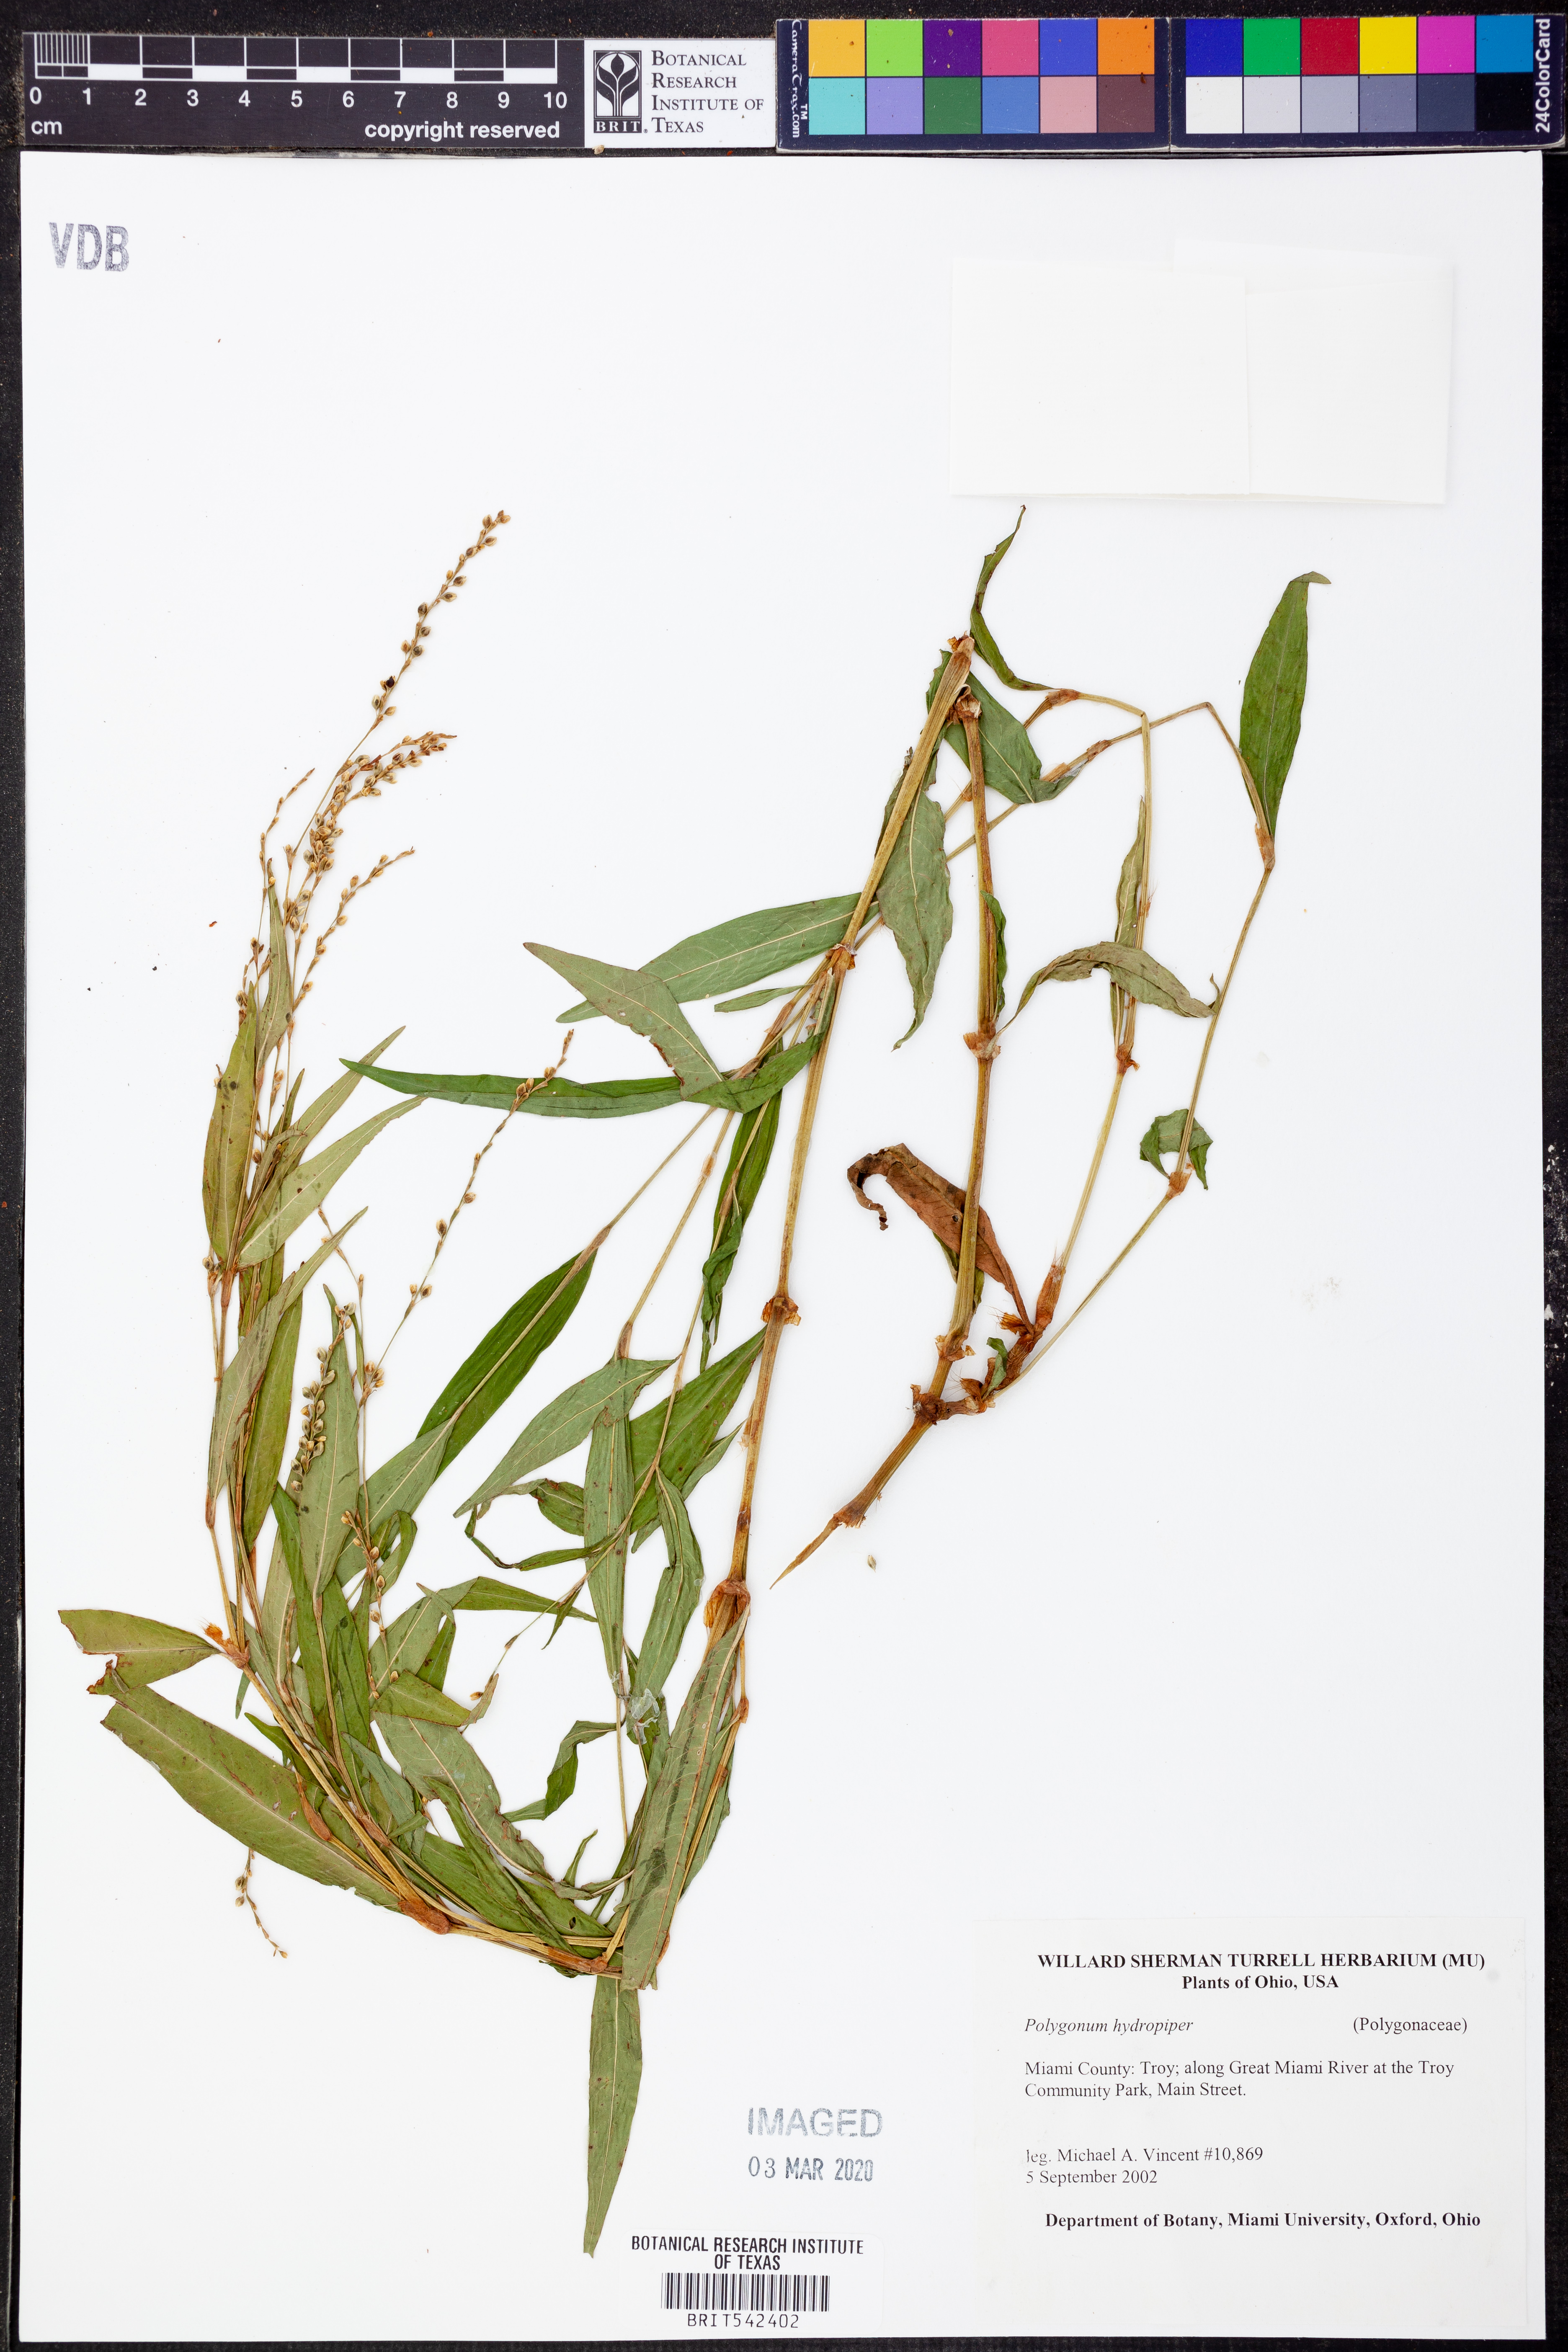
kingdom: Plantae
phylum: Tracheophyta
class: Magnoliopsida
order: Caryophyllales
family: Polygonaceae
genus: Persicaria
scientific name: Persicaria hydropiper
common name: Water-pepper
